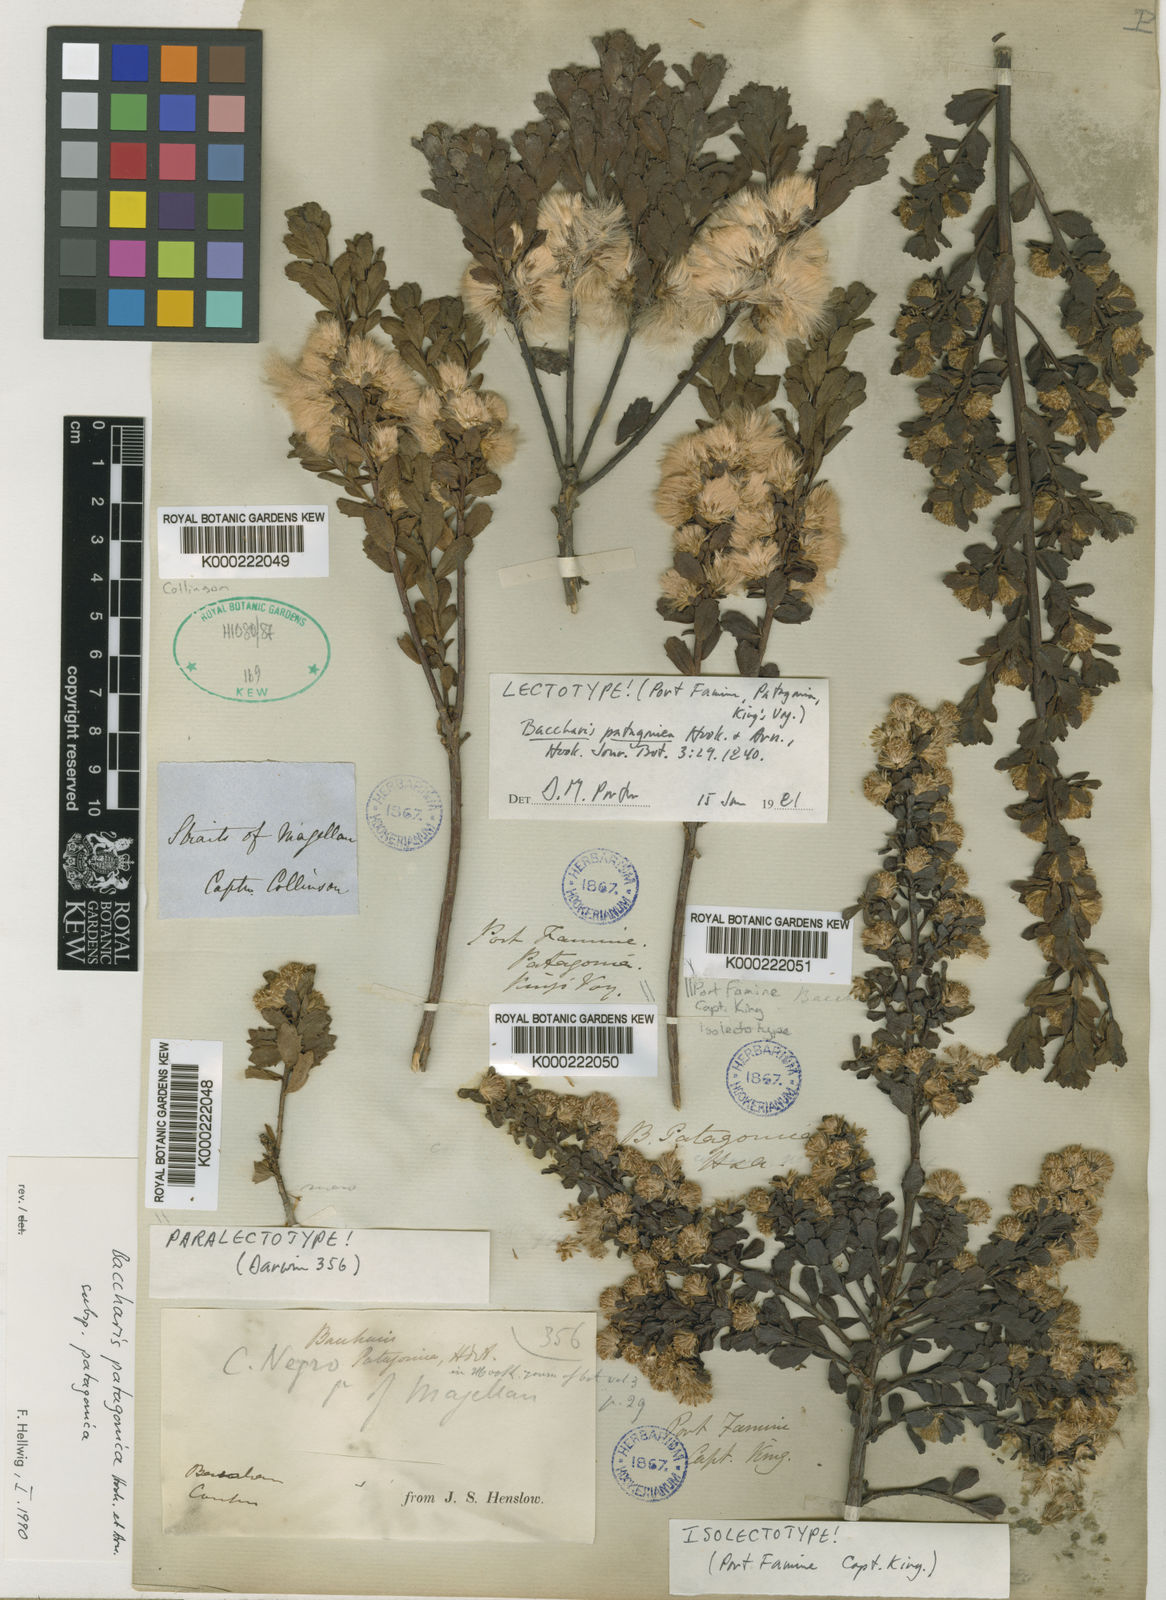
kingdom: Plantae
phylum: Tracheophyta
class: Magnoliopsida
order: Asterales
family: Asteraceae
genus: Baccharis
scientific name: Baccharis patagonica
